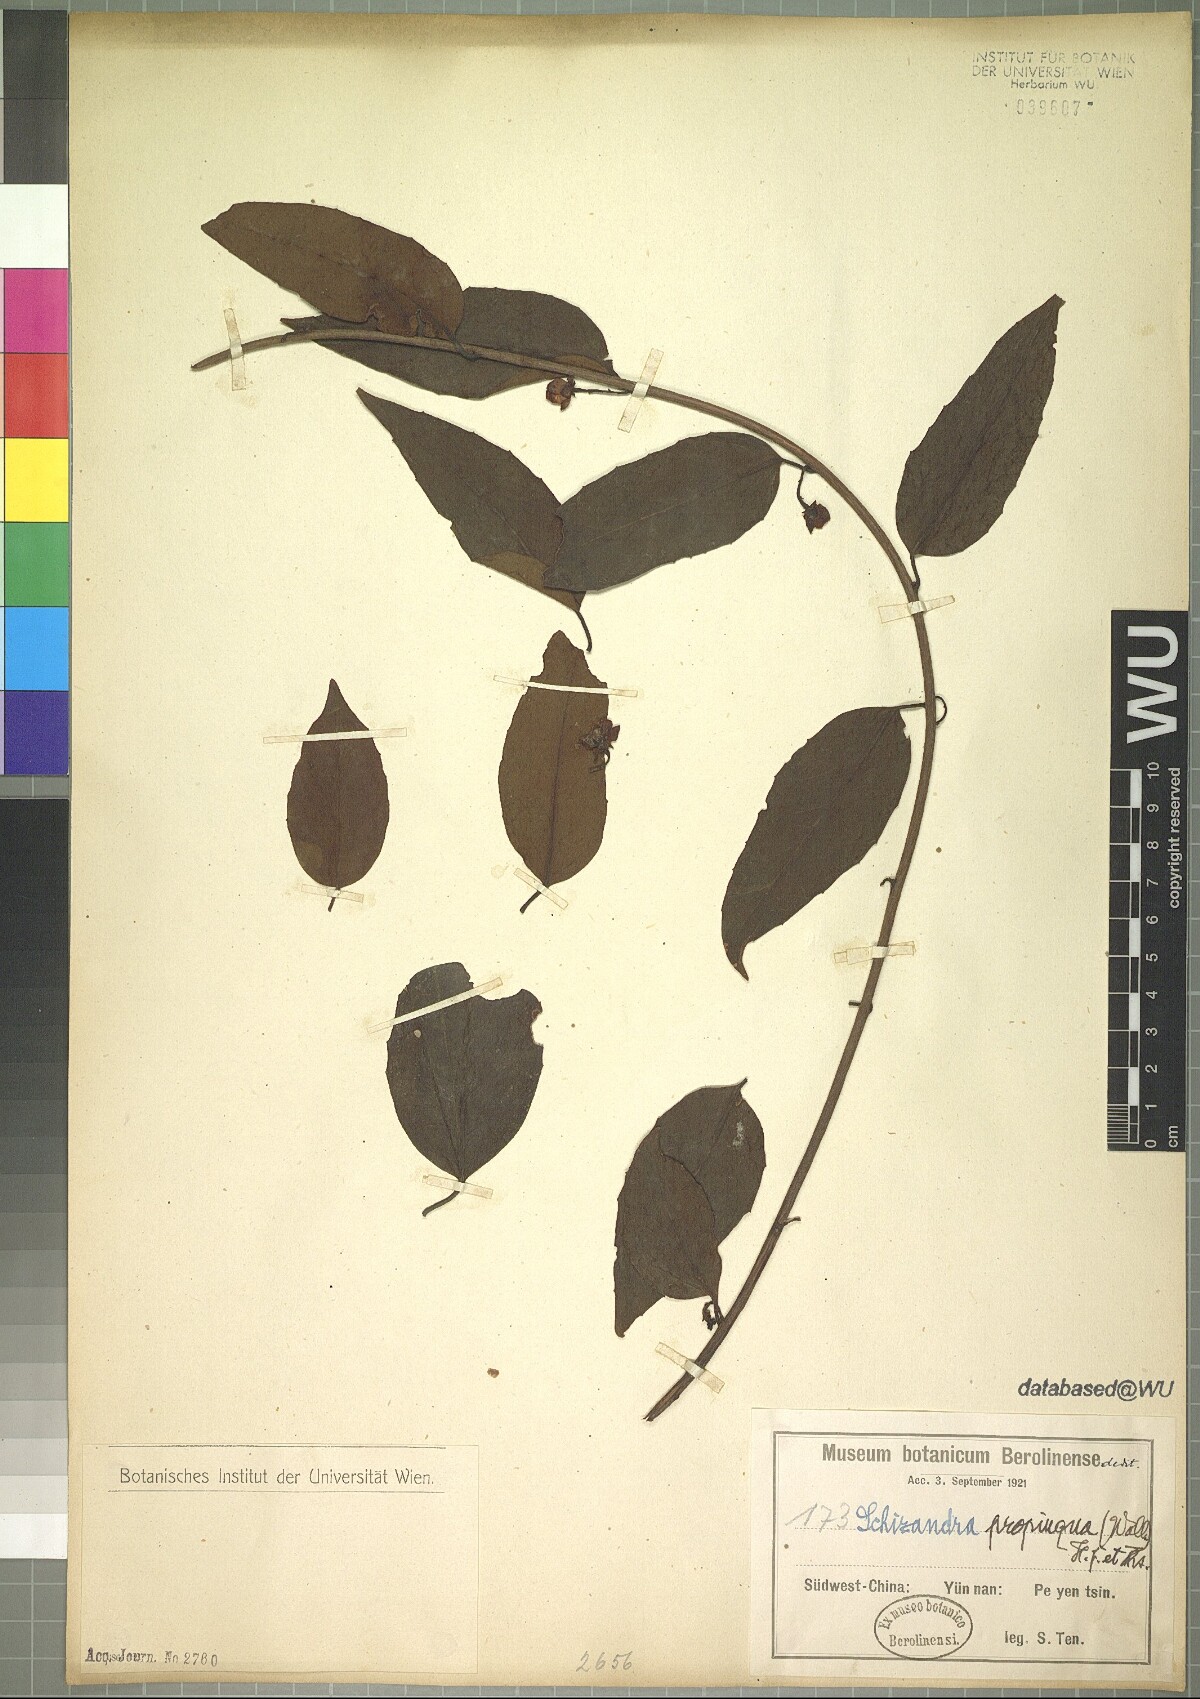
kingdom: Plantae
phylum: Tracheophyta
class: Magnoliopsida
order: Austrobaileyales
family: Schisandraceae
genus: Schisandra
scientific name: Schisandra propinqua
